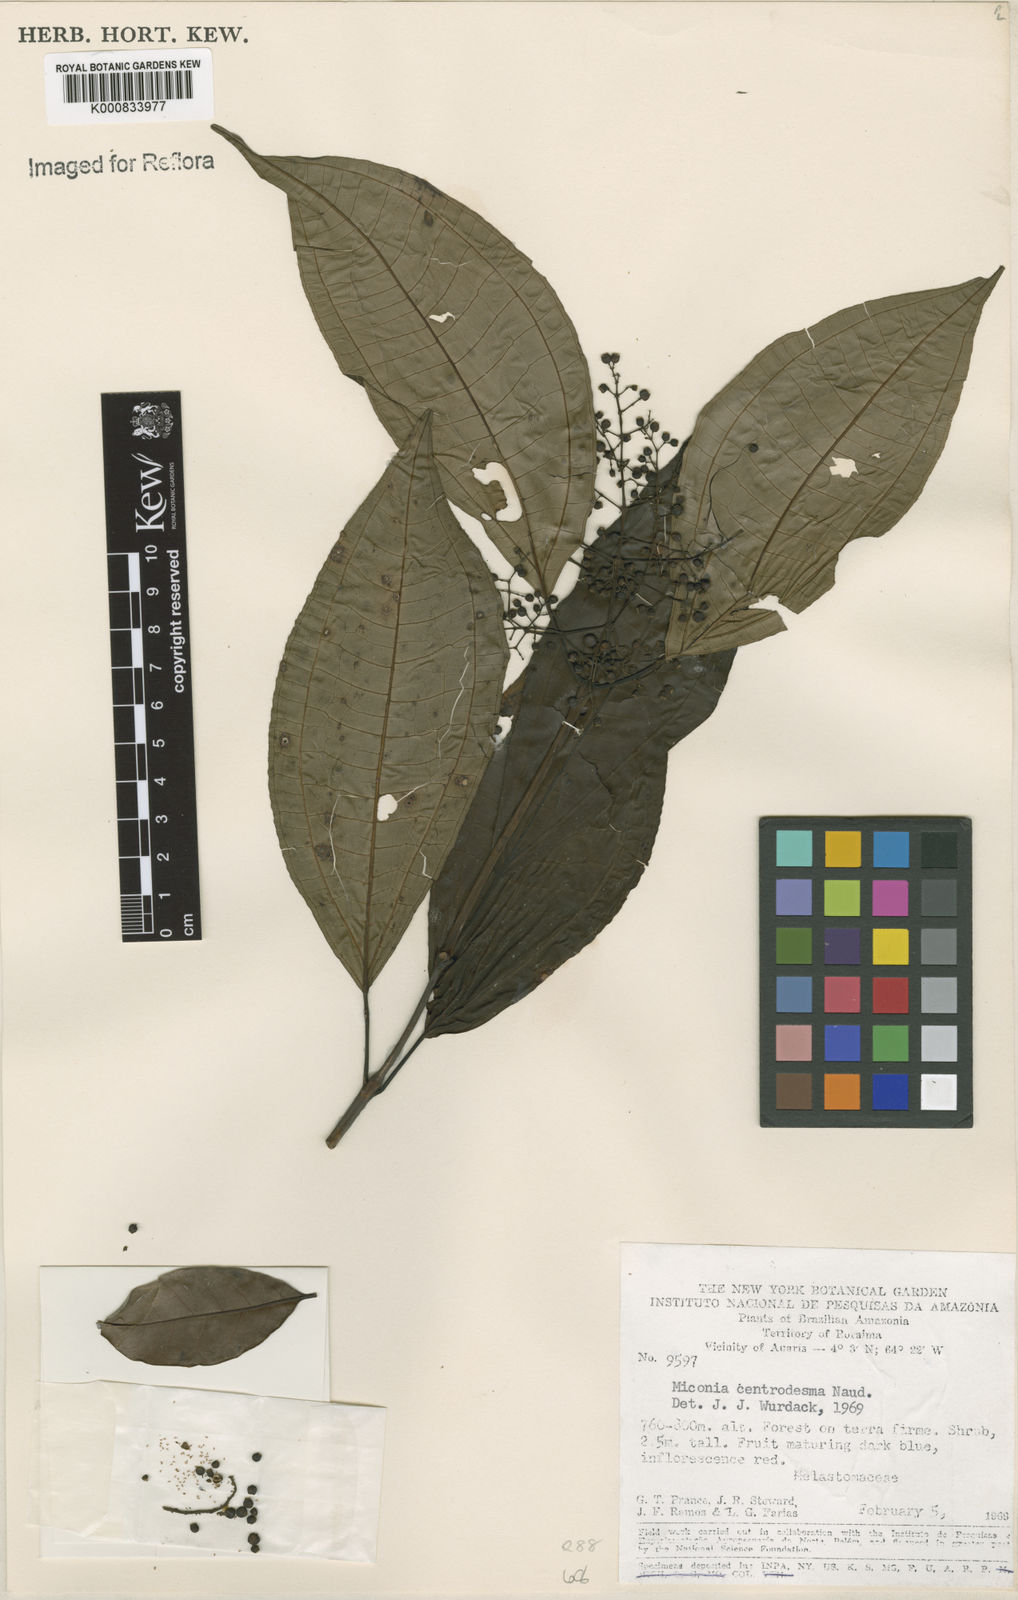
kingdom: Plantae
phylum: Tracheophyta
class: Magnoliopsida
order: Myrtales
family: Melastomataceae
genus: Miconia
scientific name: Miconia centrodesma
